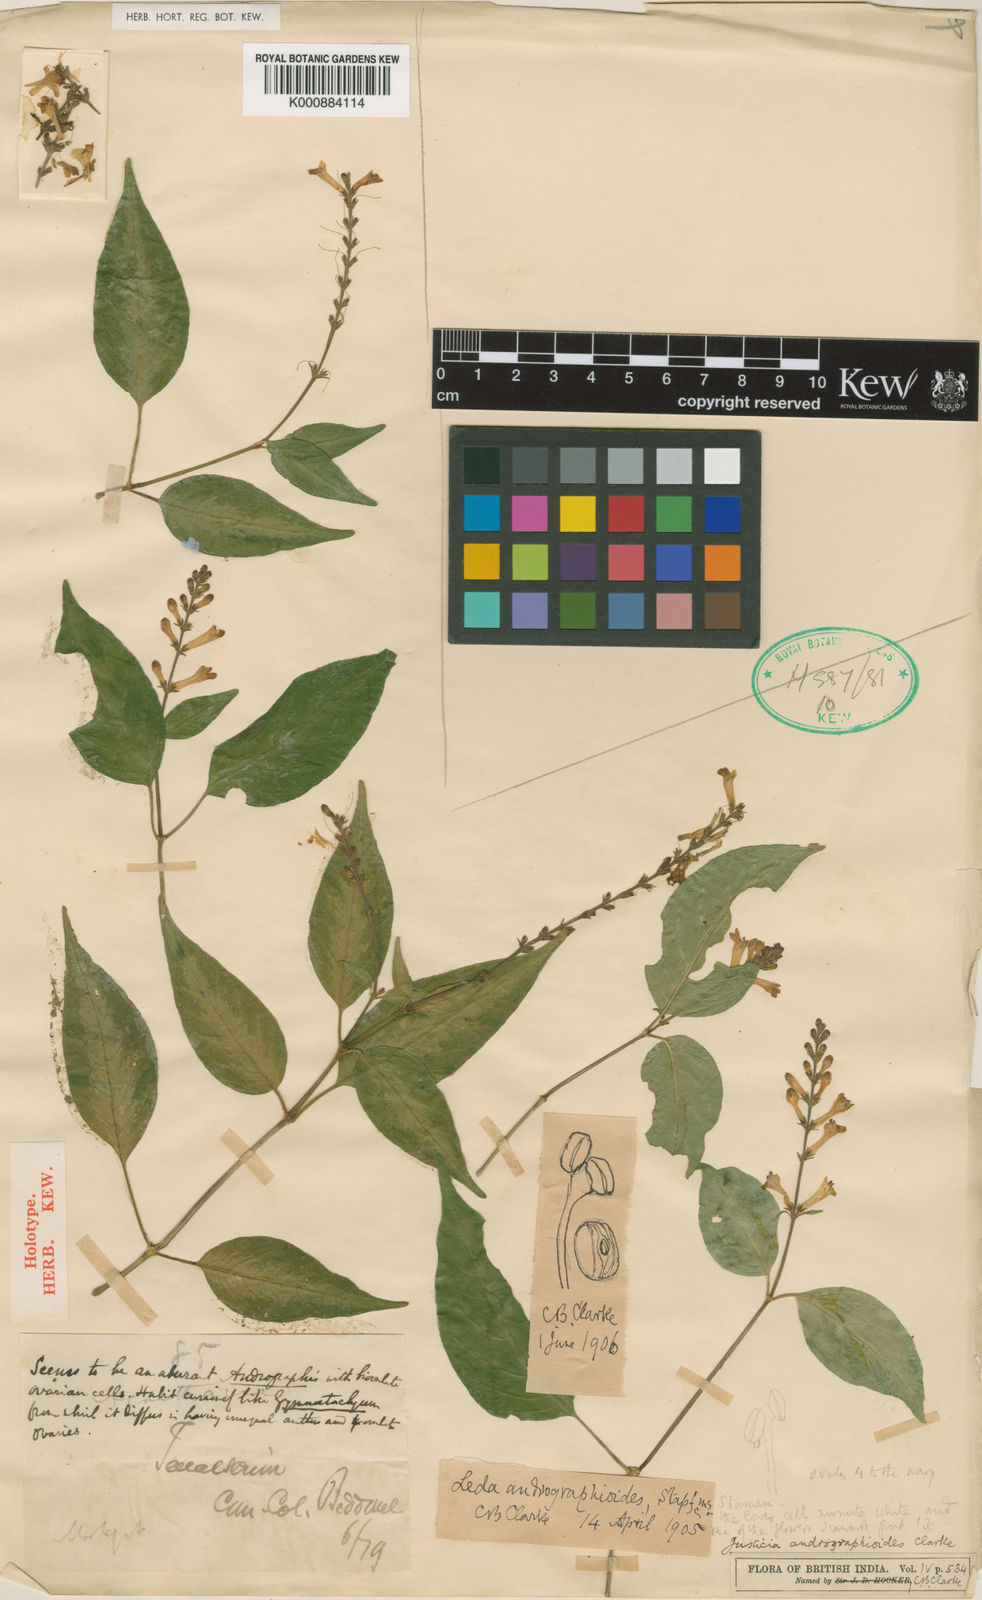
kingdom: Plantae
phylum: Tracheophyta
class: Magnoliopsida
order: Lamiales
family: Acanthaceae
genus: Justicia
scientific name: Justicia andrographioides
